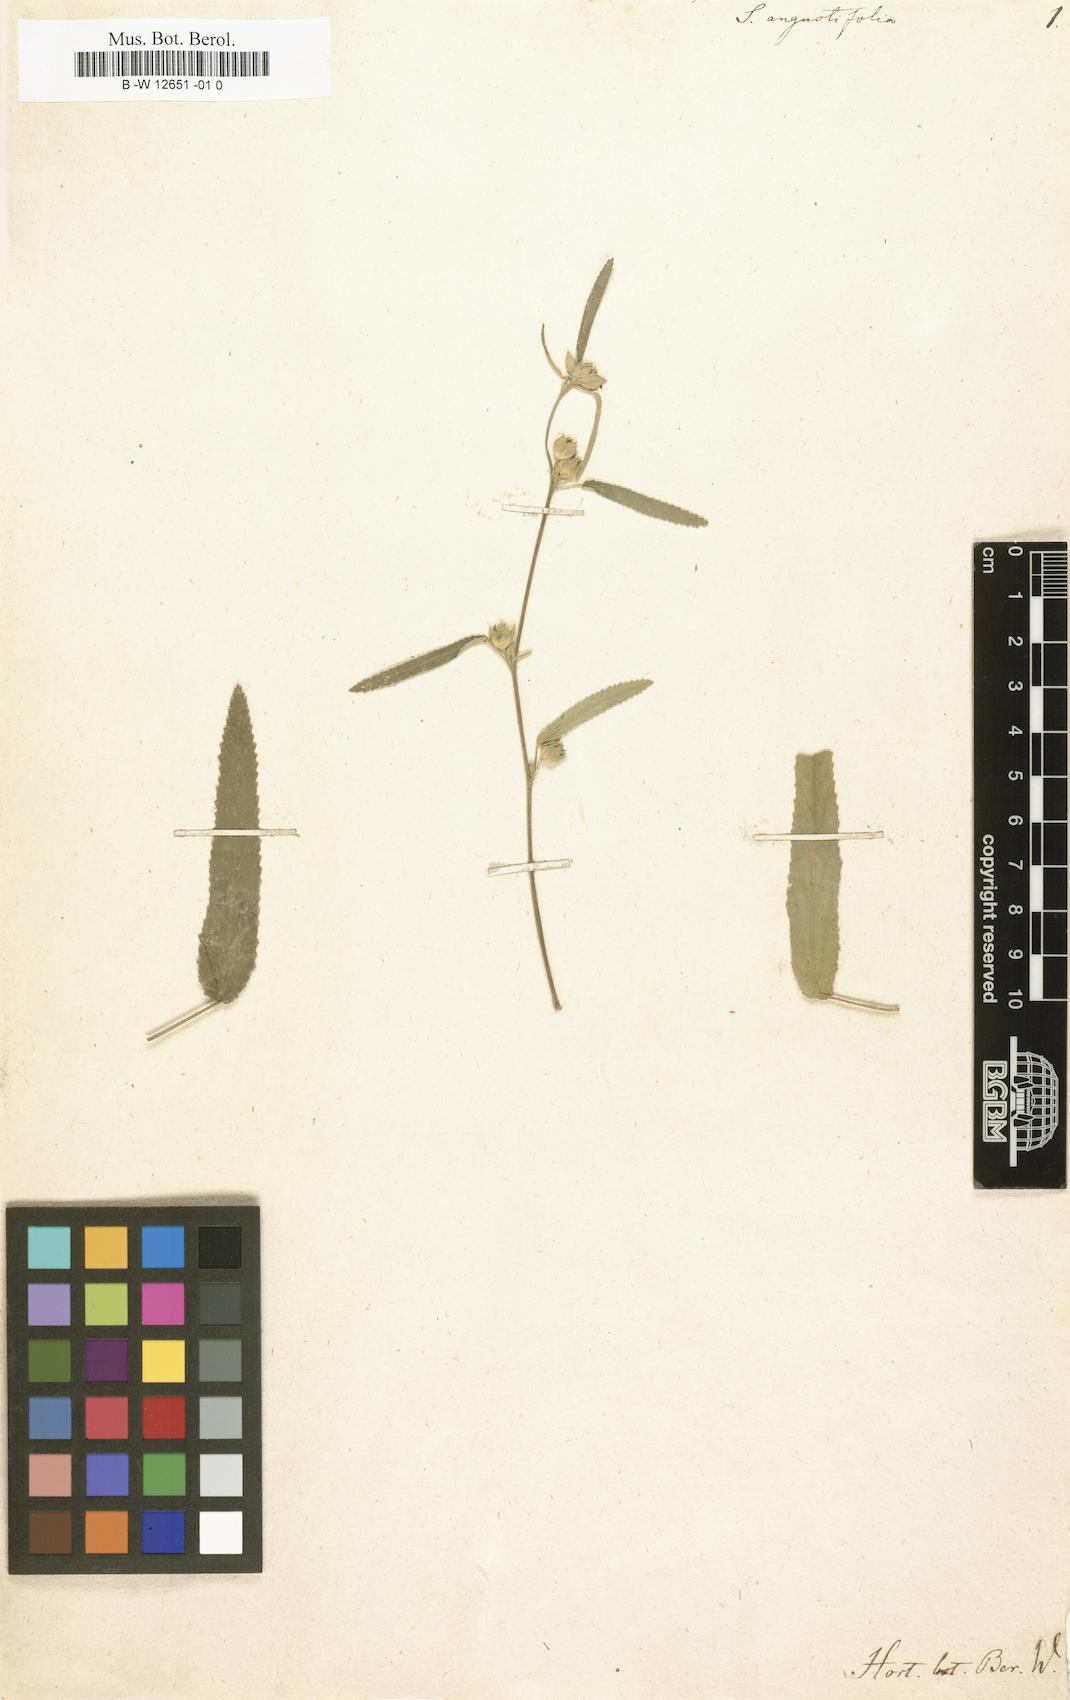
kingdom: Plantae
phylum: Tracheophyta
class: Magnoliopsida
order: Malvales
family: Malvaceae
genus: Sida
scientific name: Sida angustifolia
